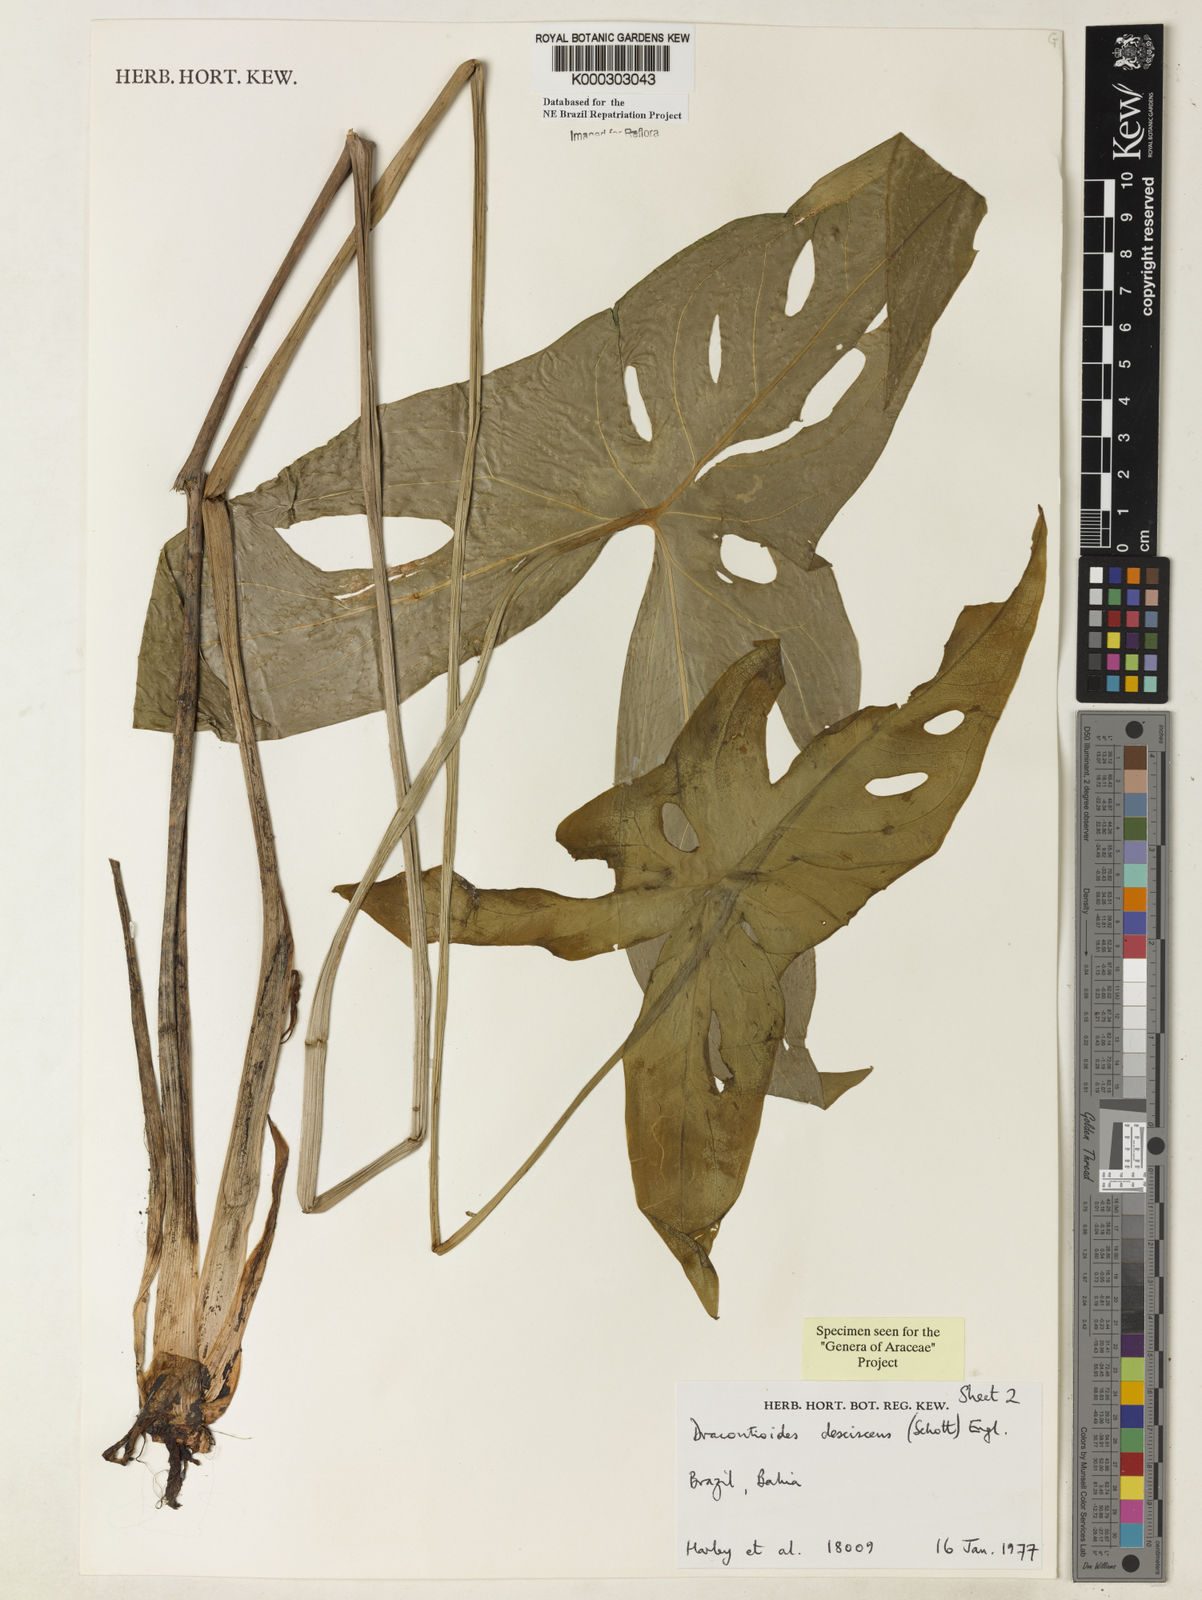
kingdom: Plantae
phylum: Tracheophyta
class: Liliopsida
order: Alismatales
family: Araceae
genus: Dracontioides
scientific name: Dracontioides desciscens
